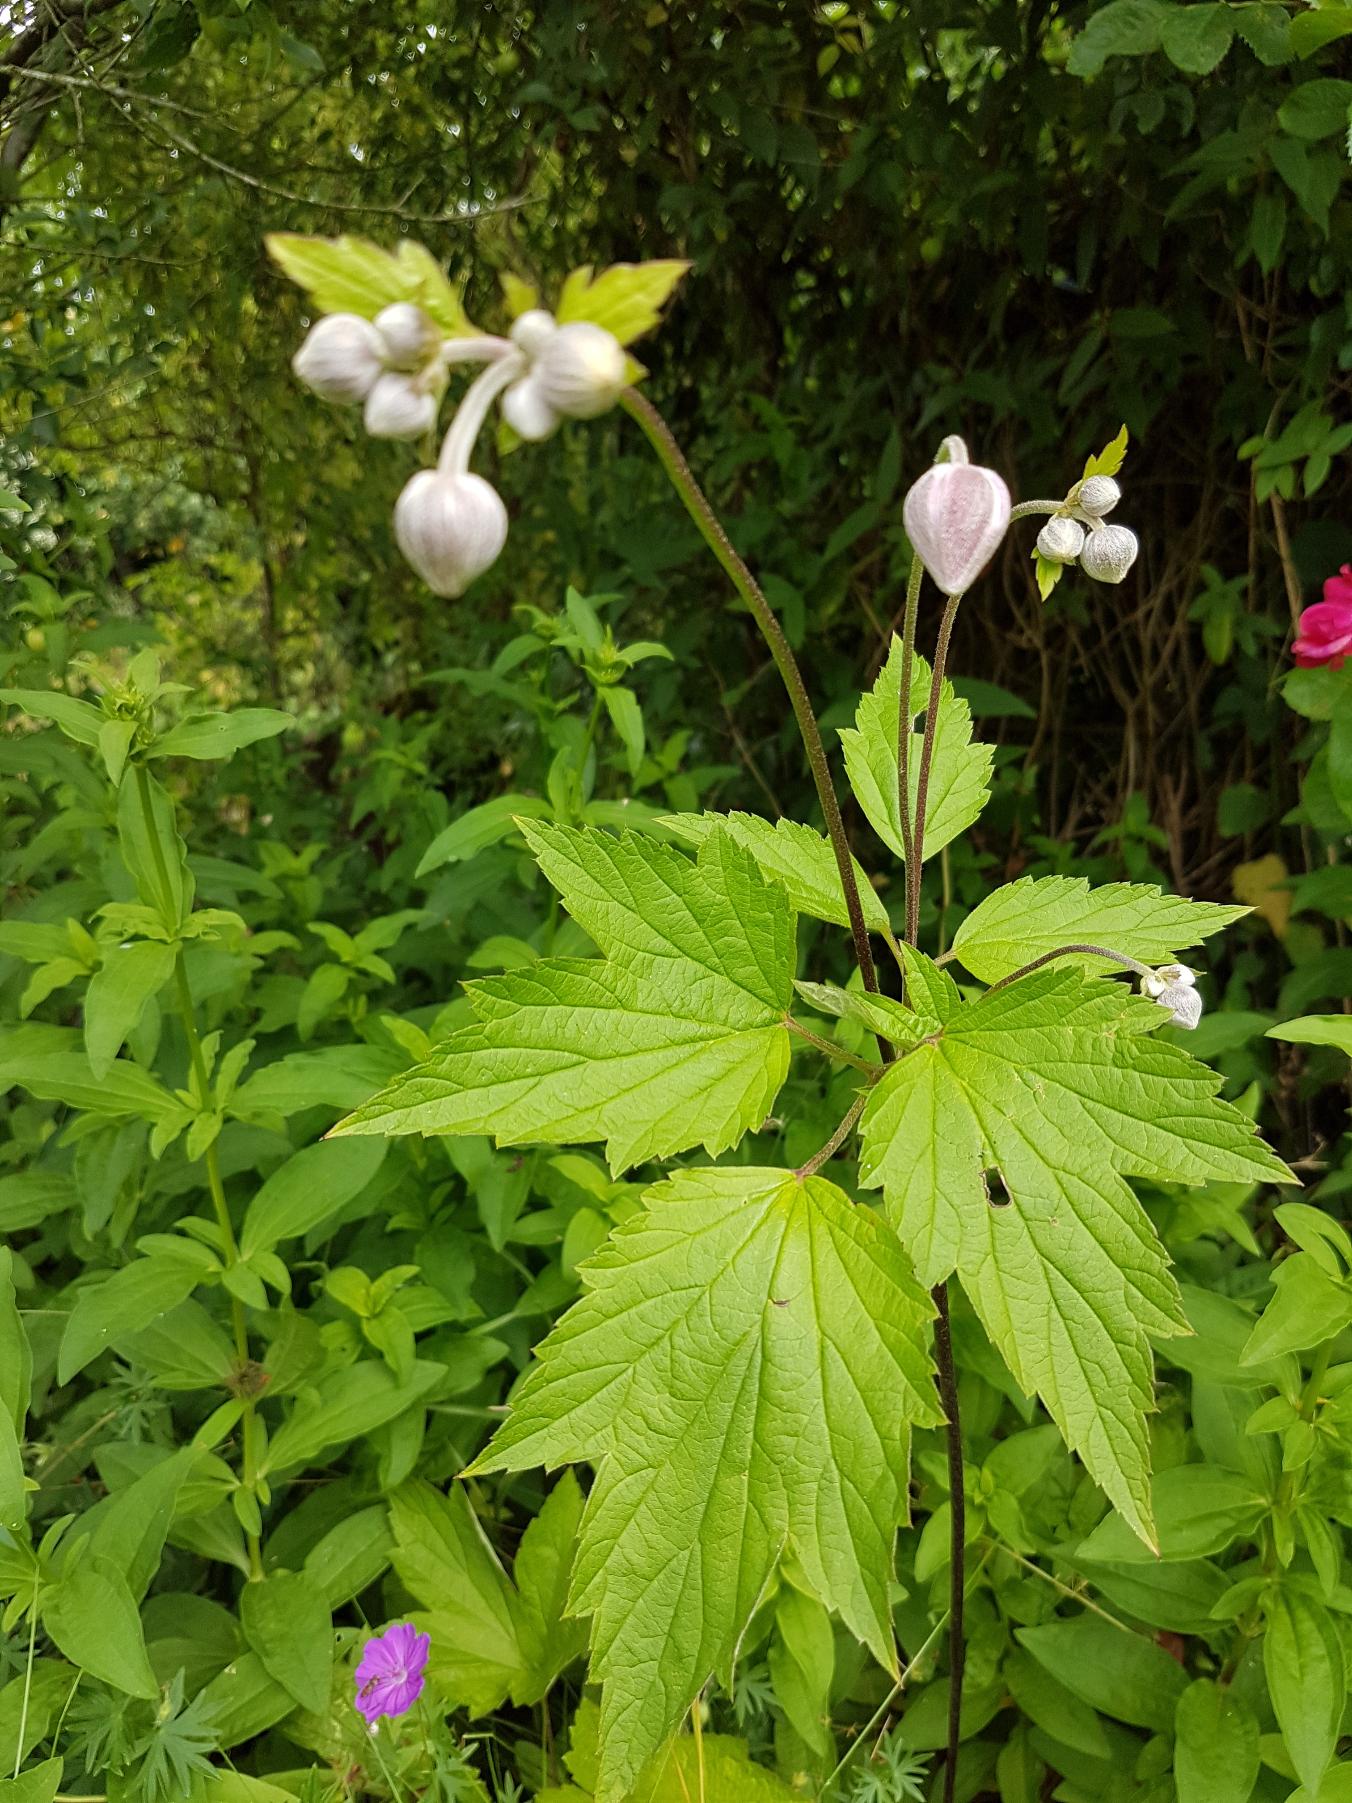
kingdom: Plantae
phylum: Tracheophyta
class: Magnoliopsida
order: Ranunculales
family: Ranunculaceae
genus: Eriocapitella
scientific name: Eriocapitella hupehensis
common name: Høst-anemone
